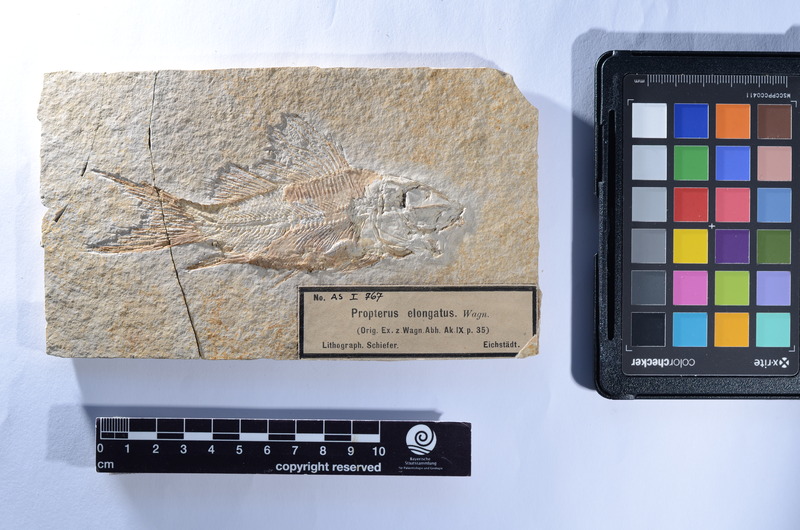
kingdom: Animalia
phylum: Chordata
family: Macrosemiidae
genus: Propterus
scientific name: Propterus elongatus
